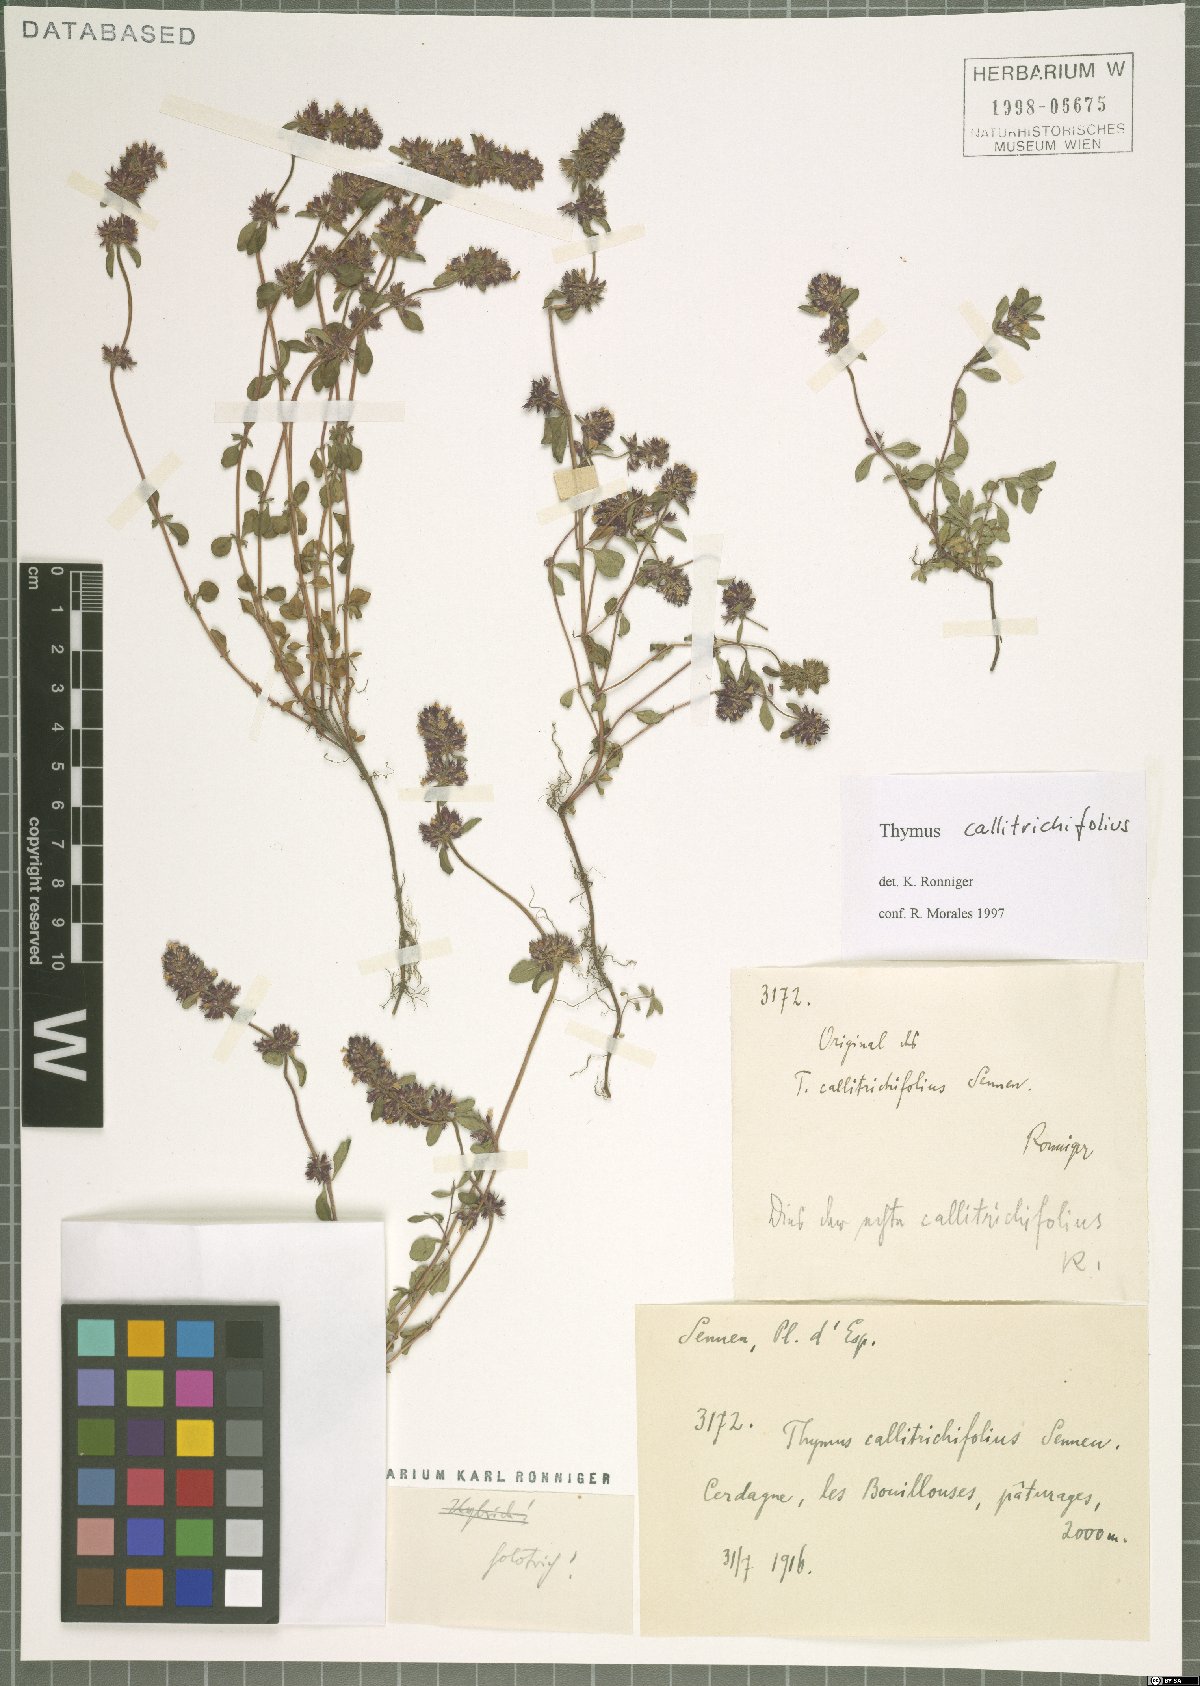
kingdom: Plantae
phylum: Tracheophyta
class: Magnoliopsida
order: Lamiales
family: Lamiaceae
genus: Thymus
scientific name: Thymus pulegioides
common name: Large thyme
